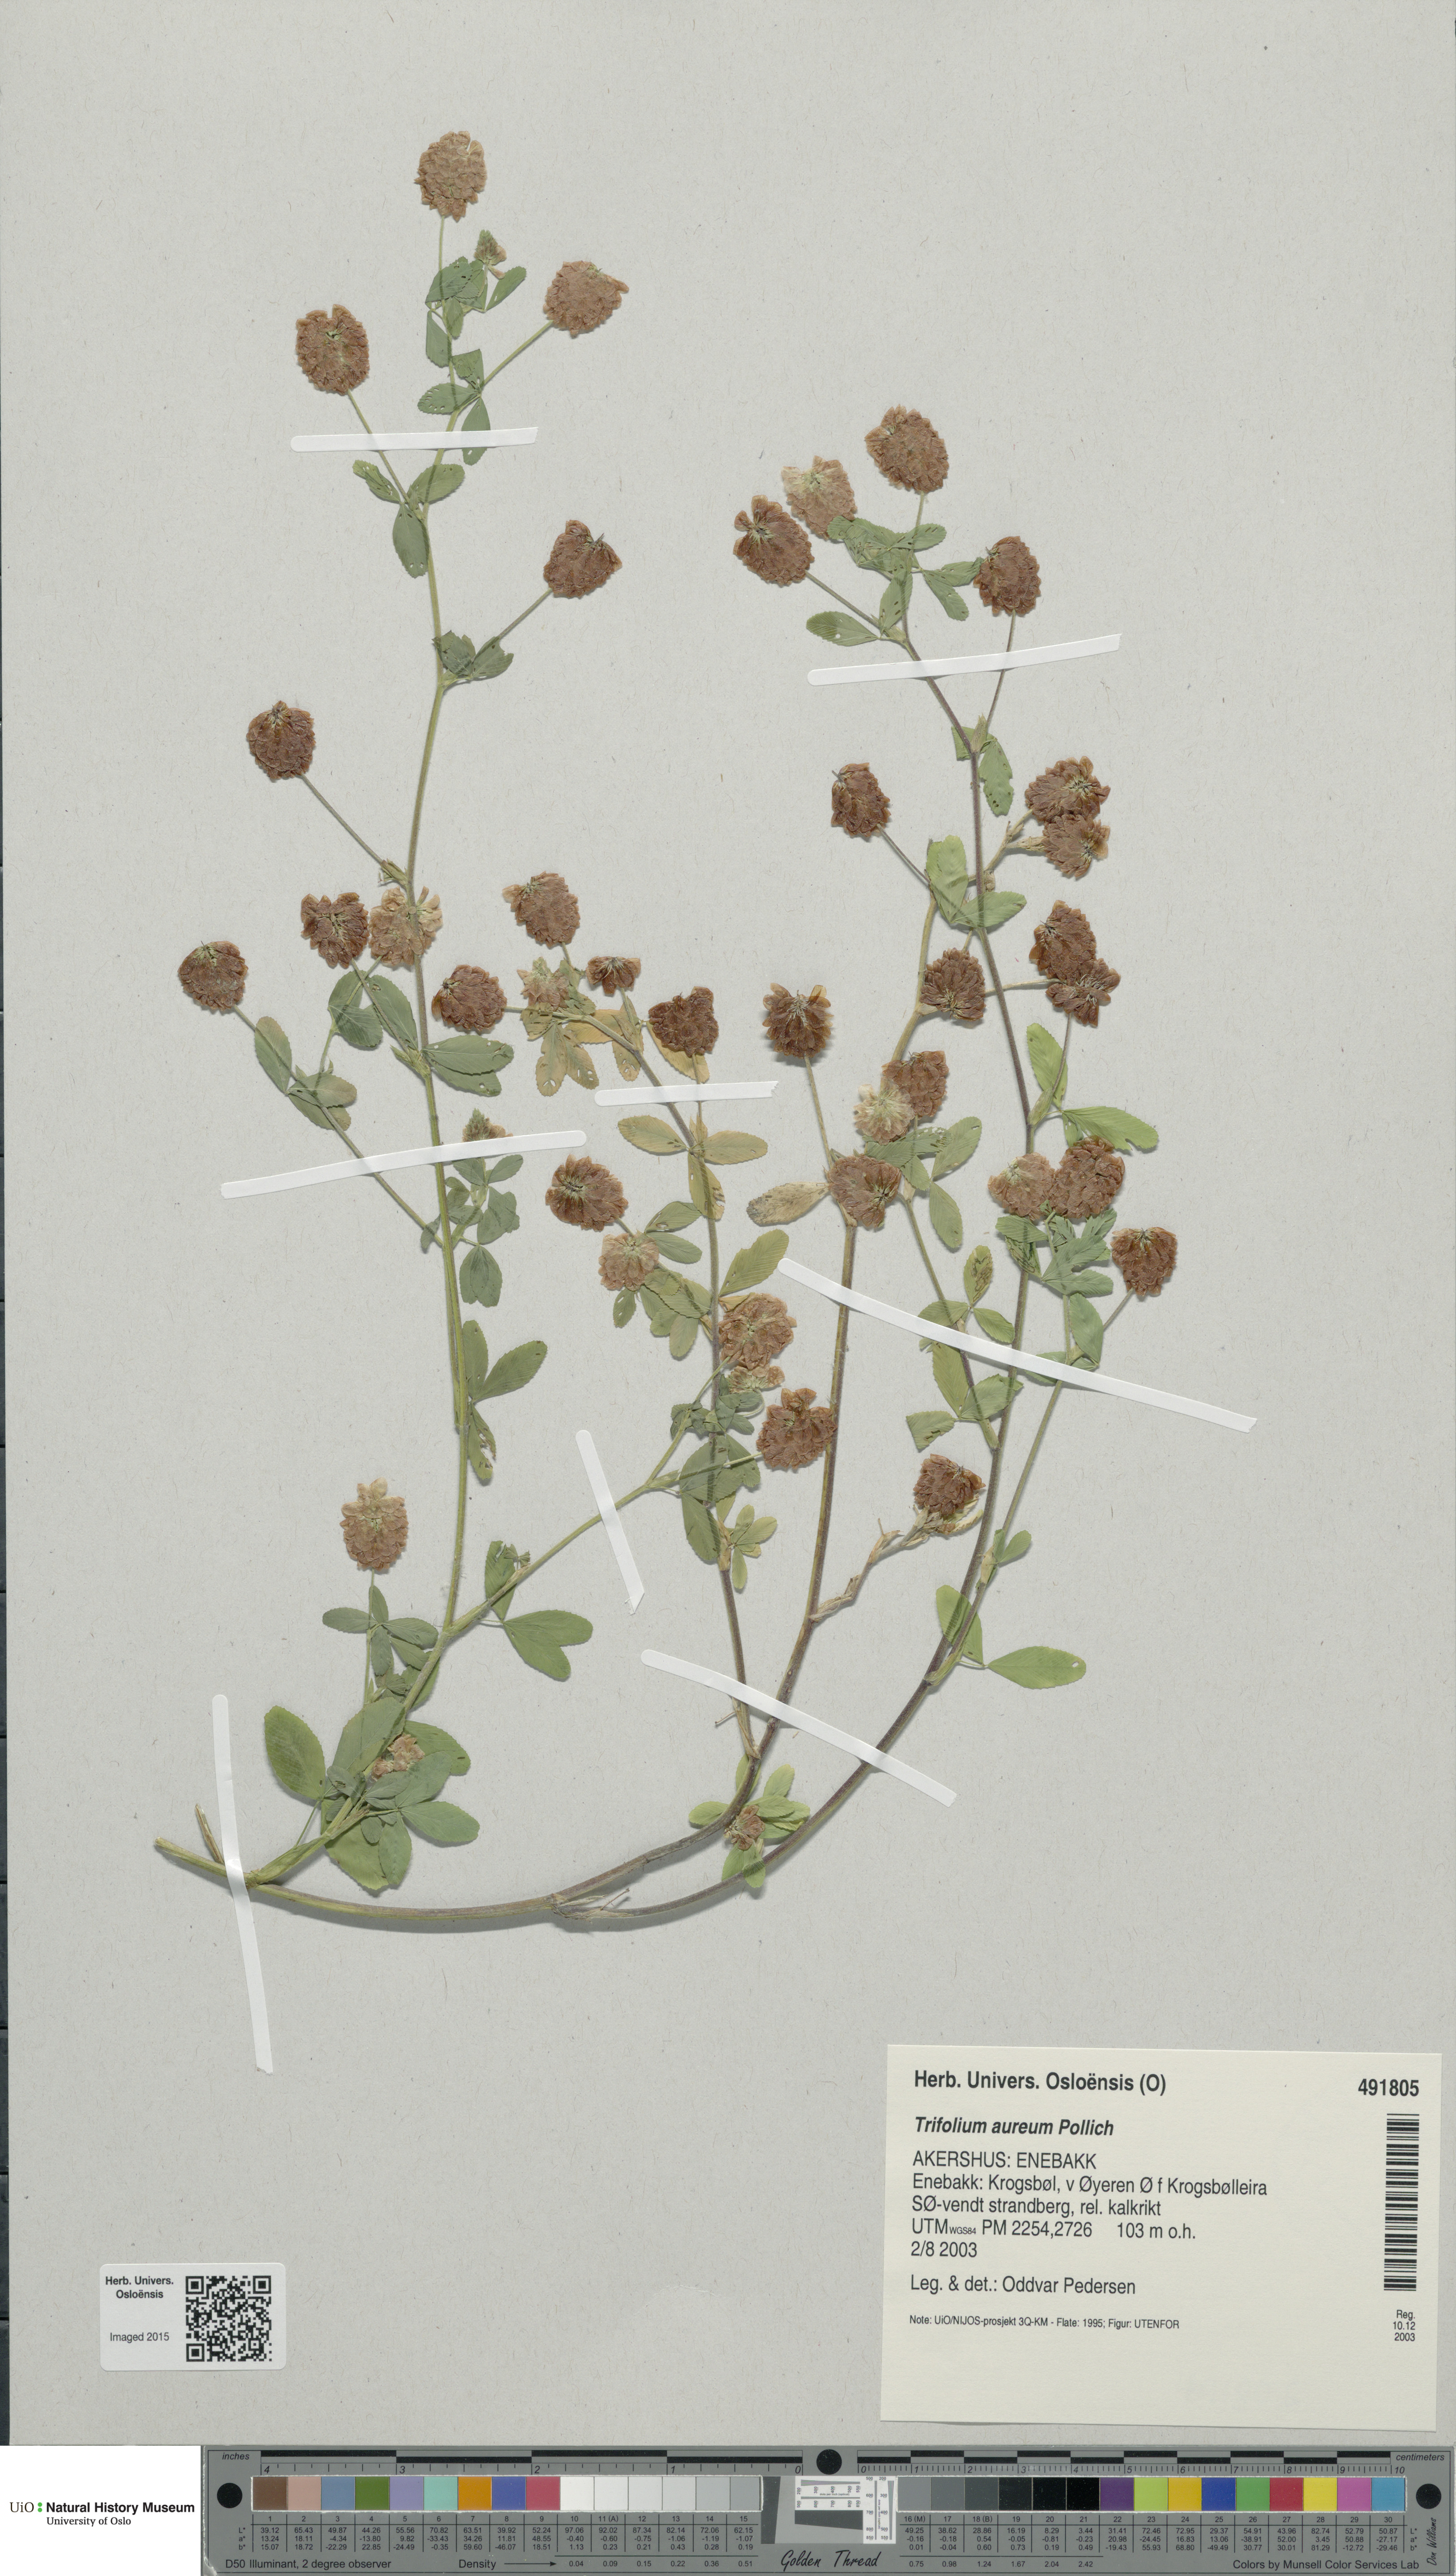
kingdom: Plantae
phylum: Tracheophyta
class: Magnoliopsida
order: Fabales
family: Fabaceae
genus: Trifolium
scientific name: Trifolium aureum
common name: Golden clover
